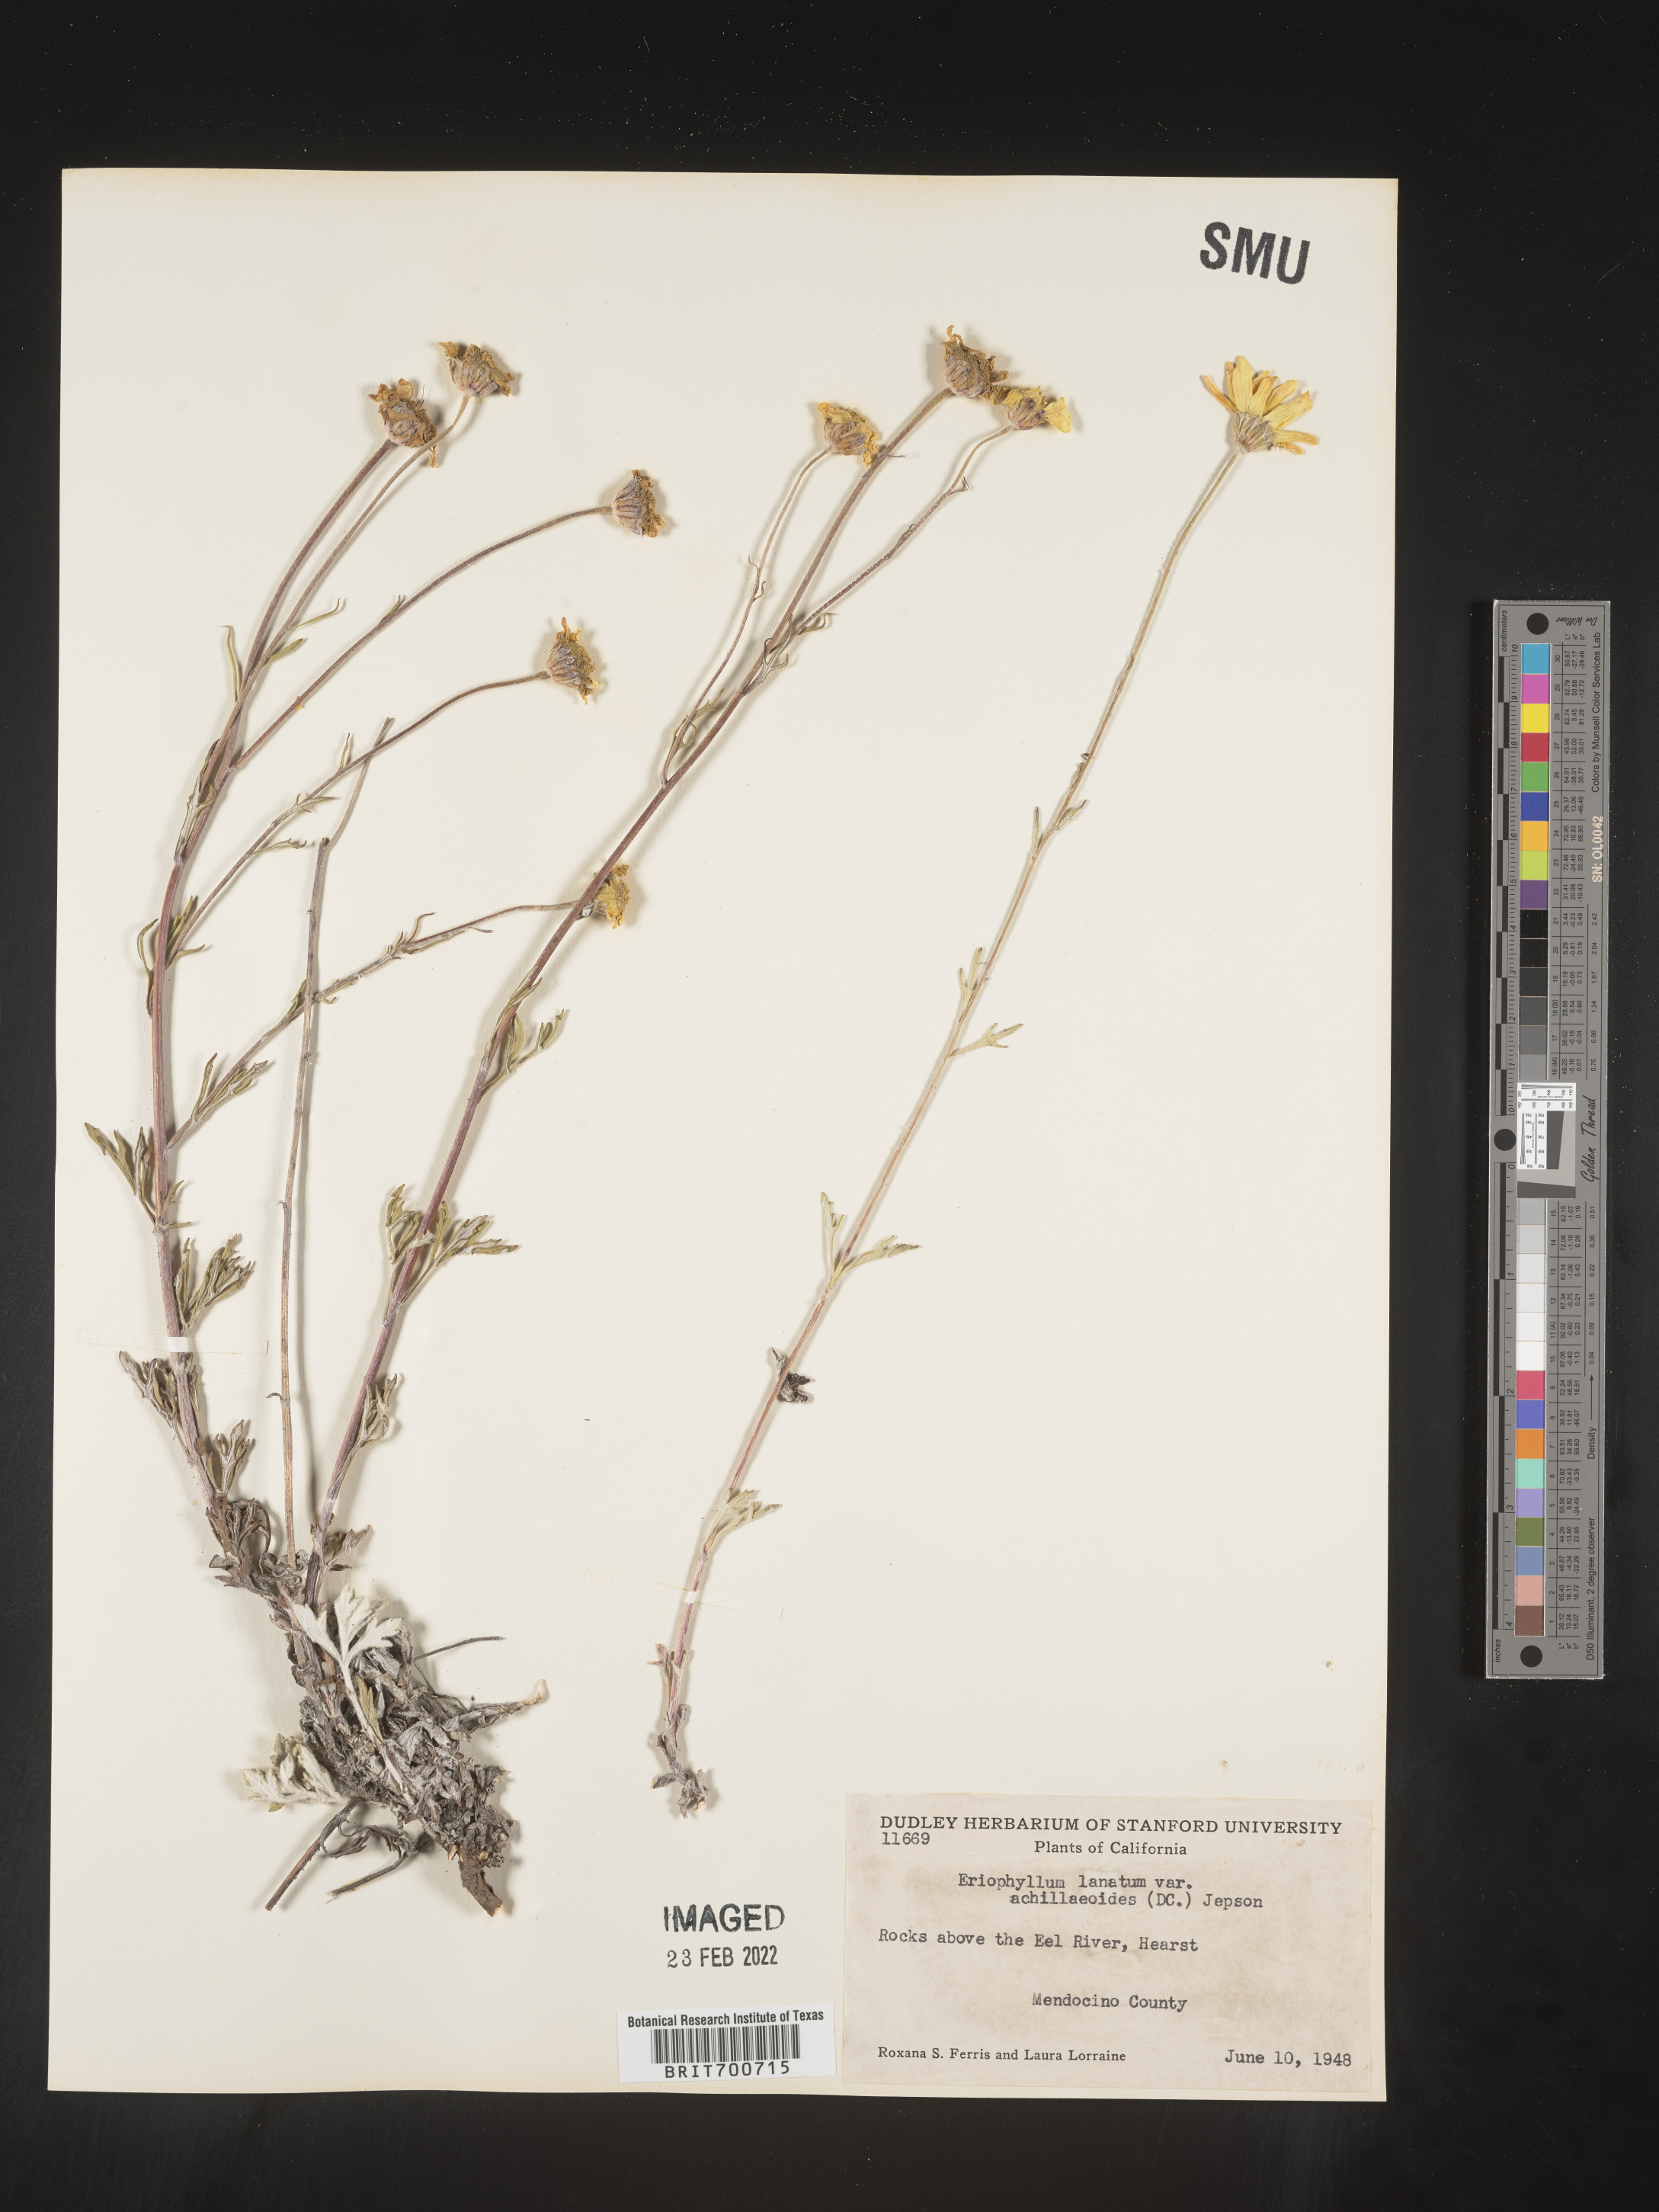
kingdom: Plantae
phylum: Tracheophyta
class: Magnoliopsida
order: Asterales
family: Asteraceae
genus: Eriophyllum
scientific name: Eriophyllum lanatum
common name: Common woolly-sunflower
